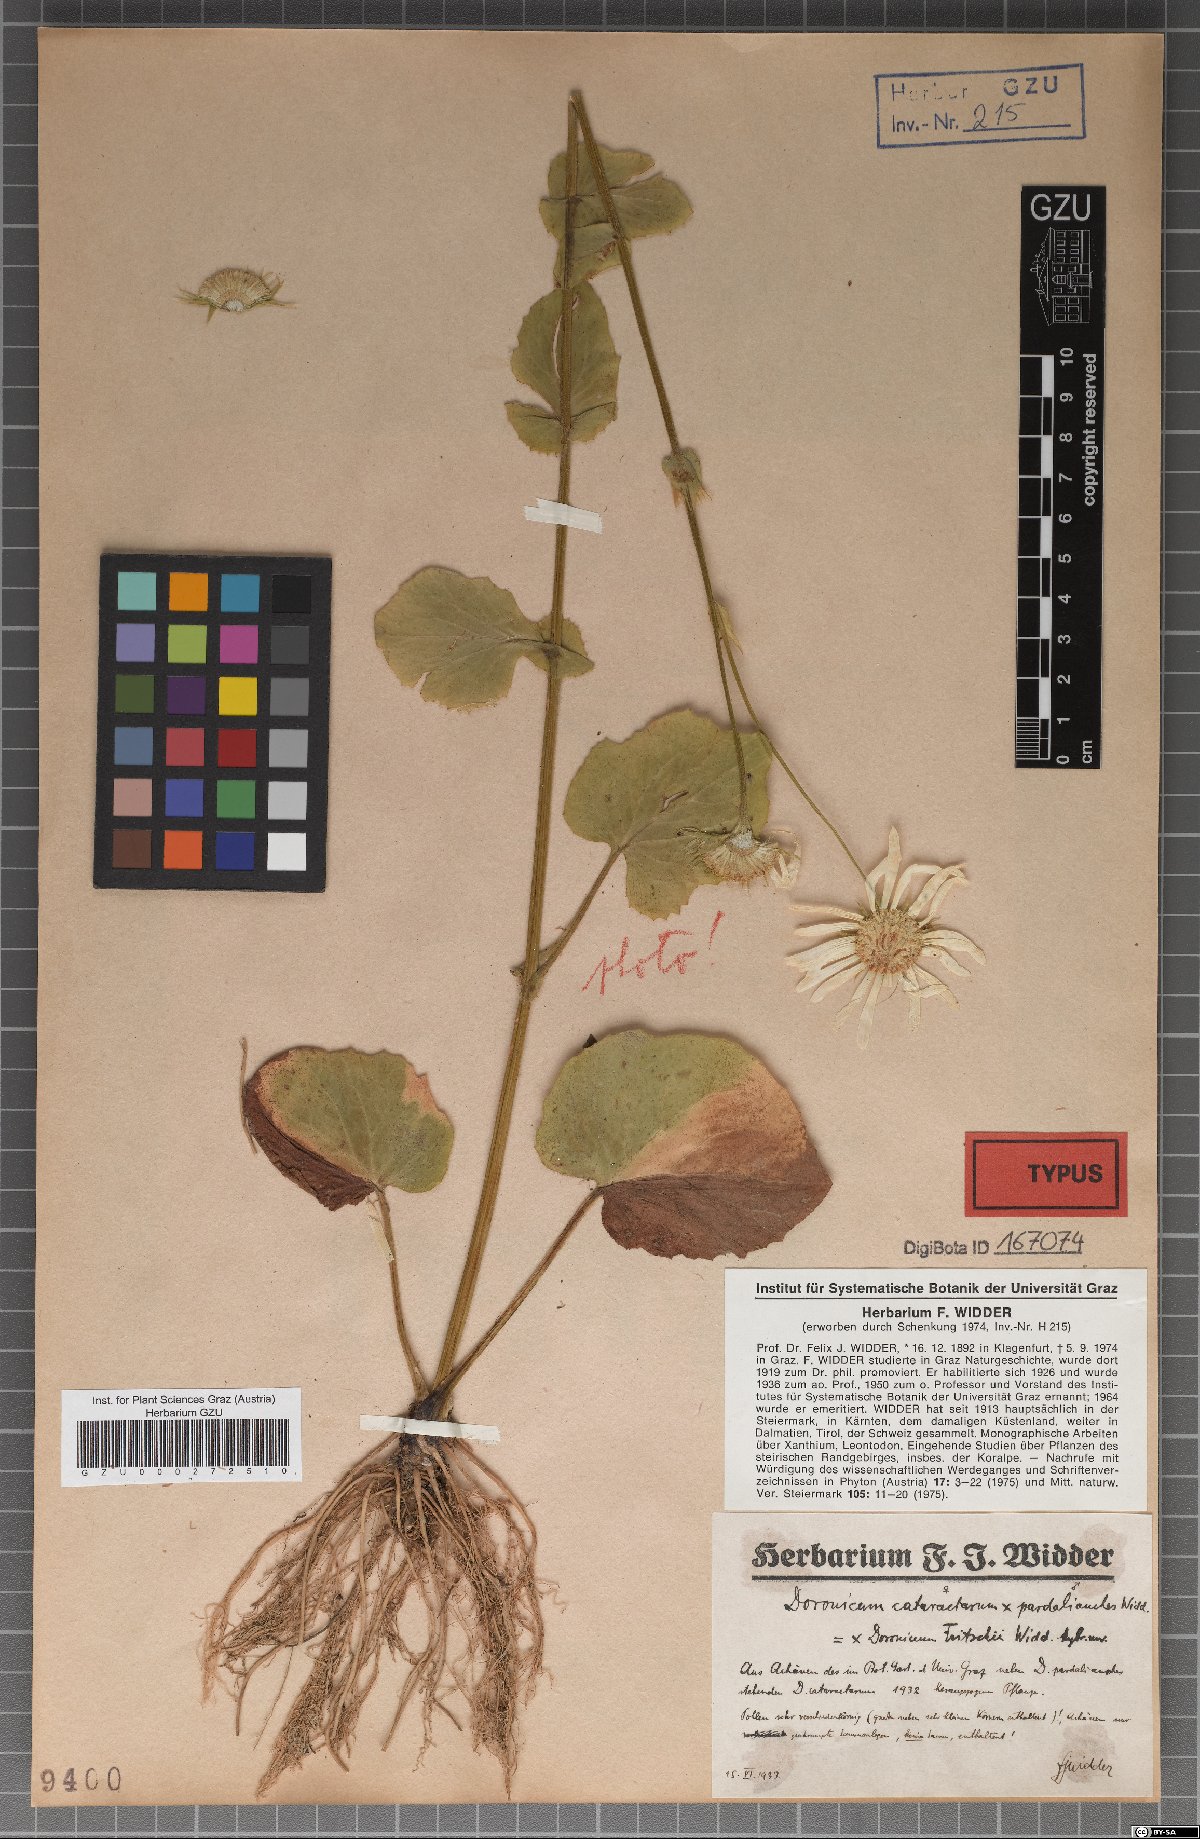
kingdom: Plantae
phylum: Tracheophyta
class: Magnoliopsida
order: Asterales
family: Asteraceae
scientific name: Asteraceae
